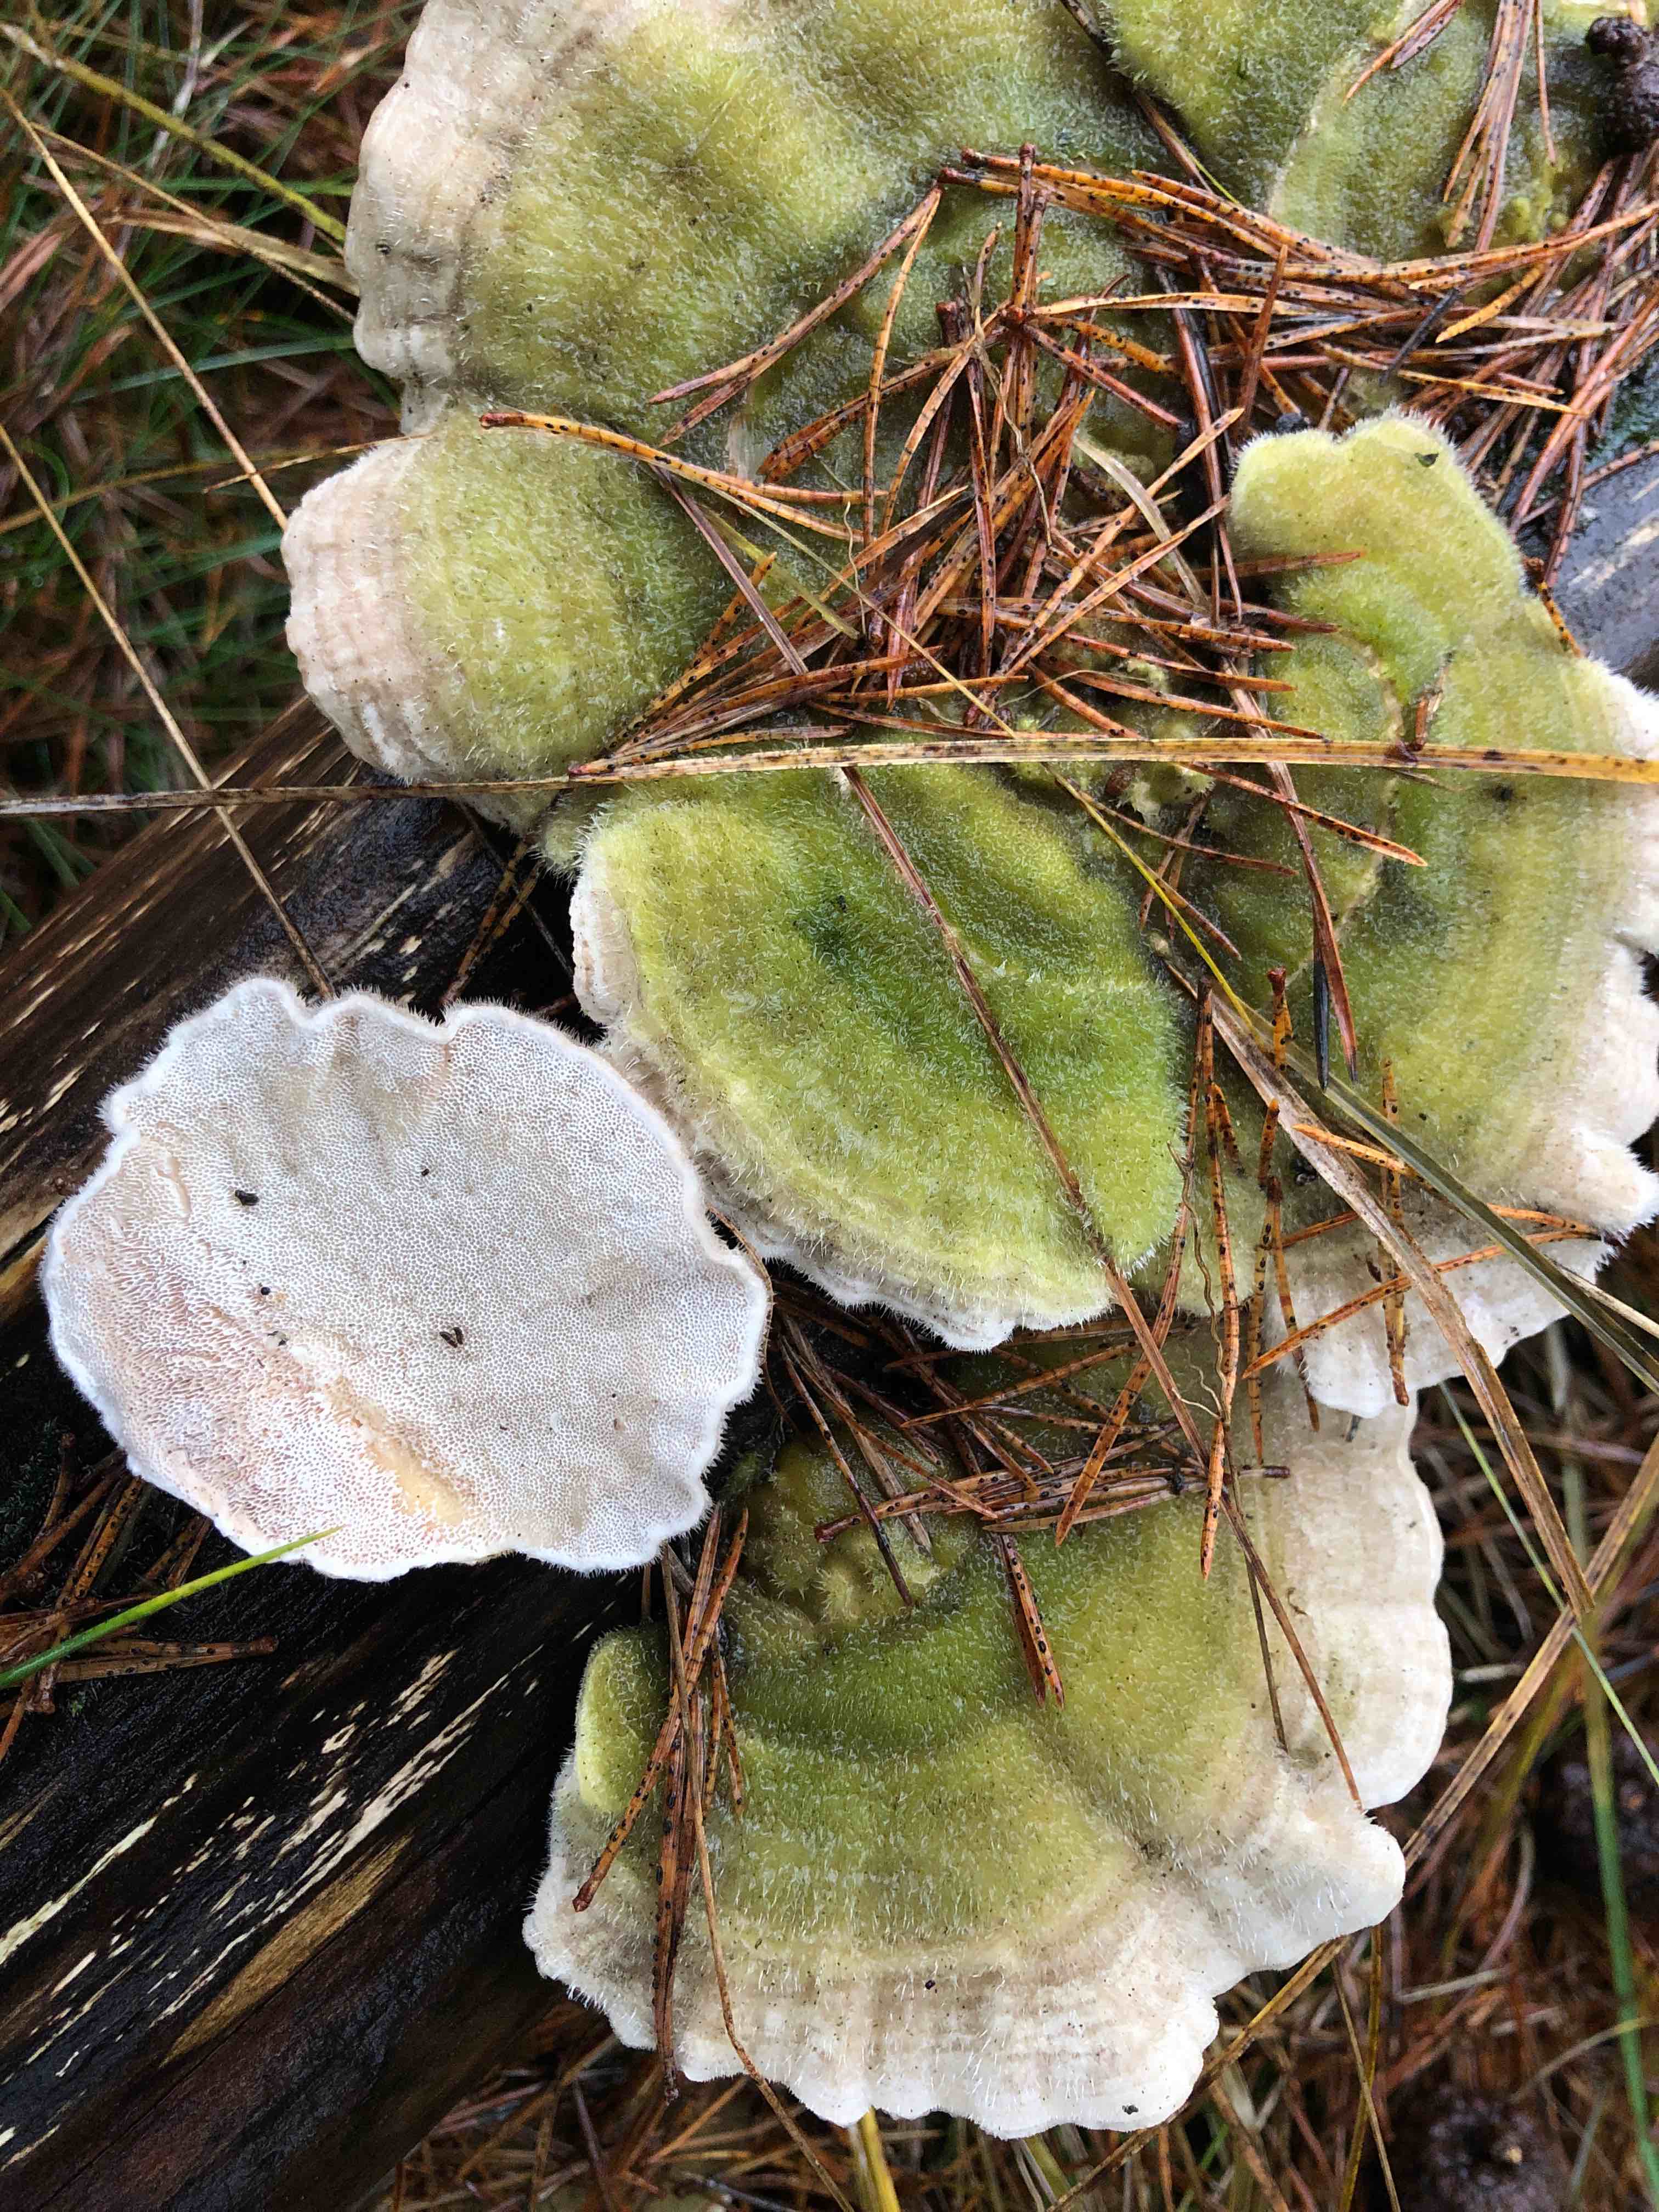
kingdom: Fungi
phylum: Basidiomycota
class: Agaricomycetes
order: Polyporales
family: Polyporaceae
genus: Trametes
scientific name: Trametes hirsuta
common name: håret læderporesvamp
